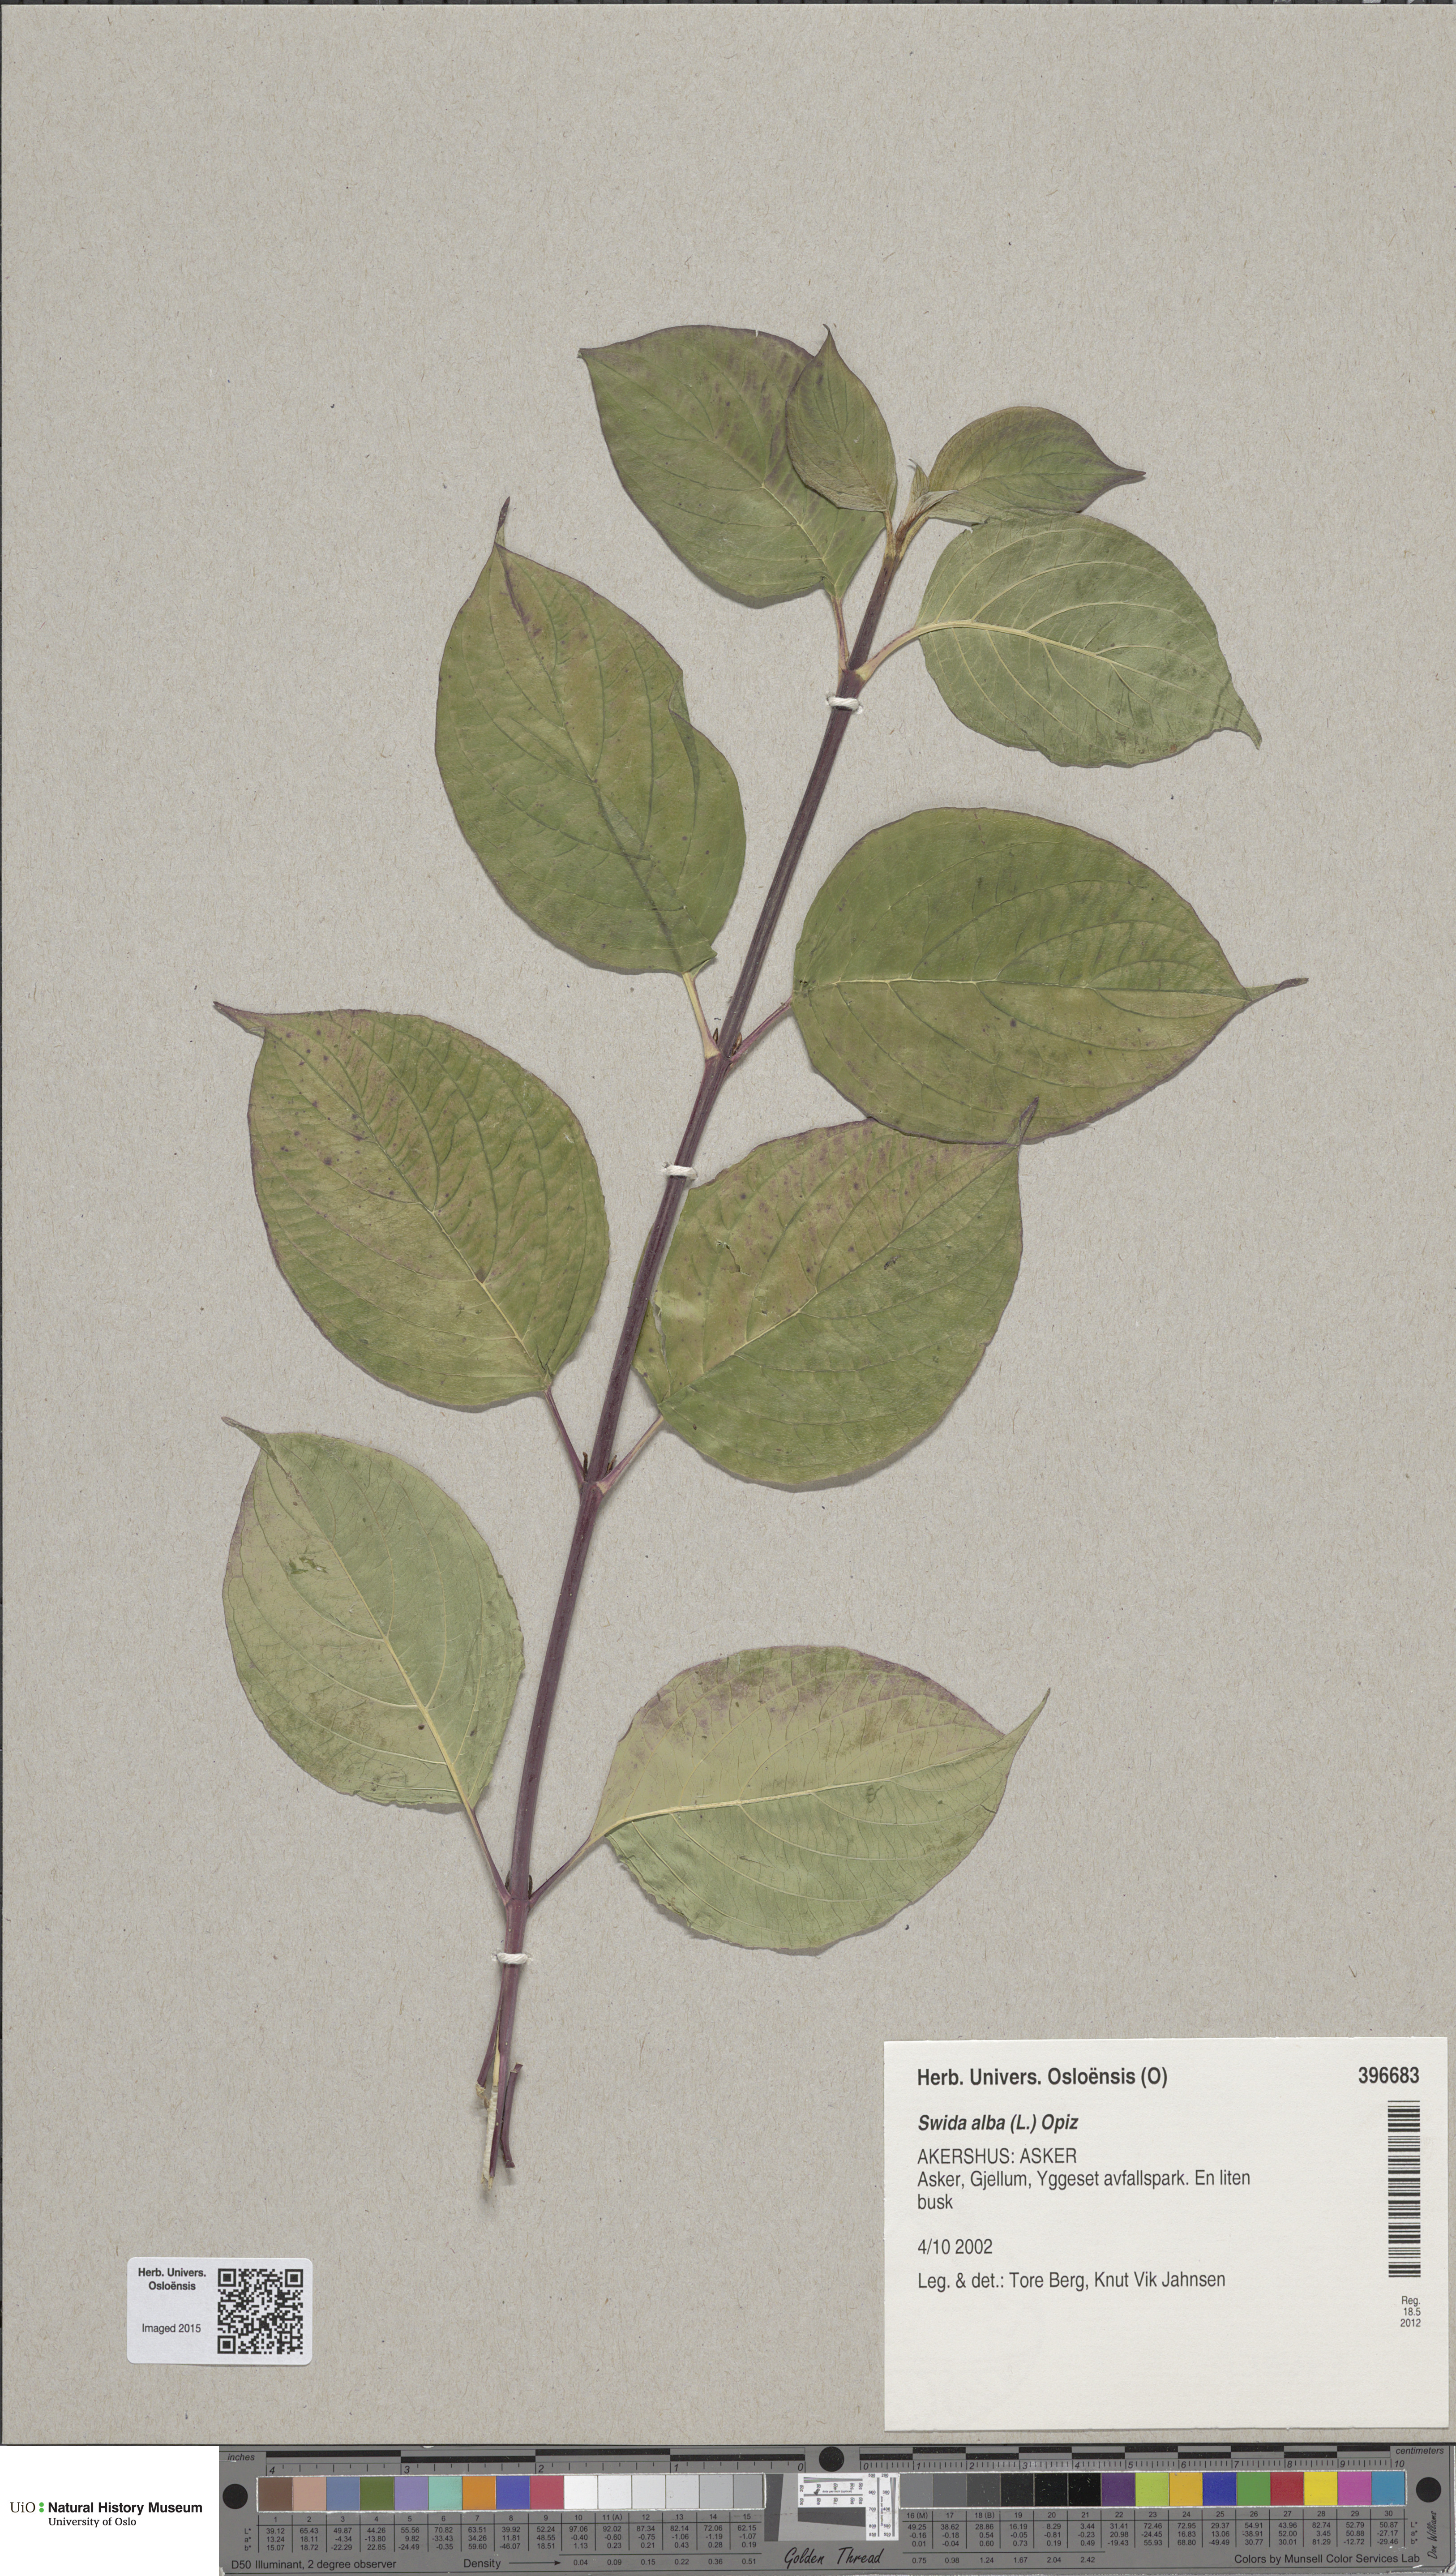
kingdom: Plantae
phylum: Tracheophyta
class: Magnoliopsida
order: Cornales
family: Cornaceae
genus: Cornus
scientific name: Cornus alba
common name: White dogwood
